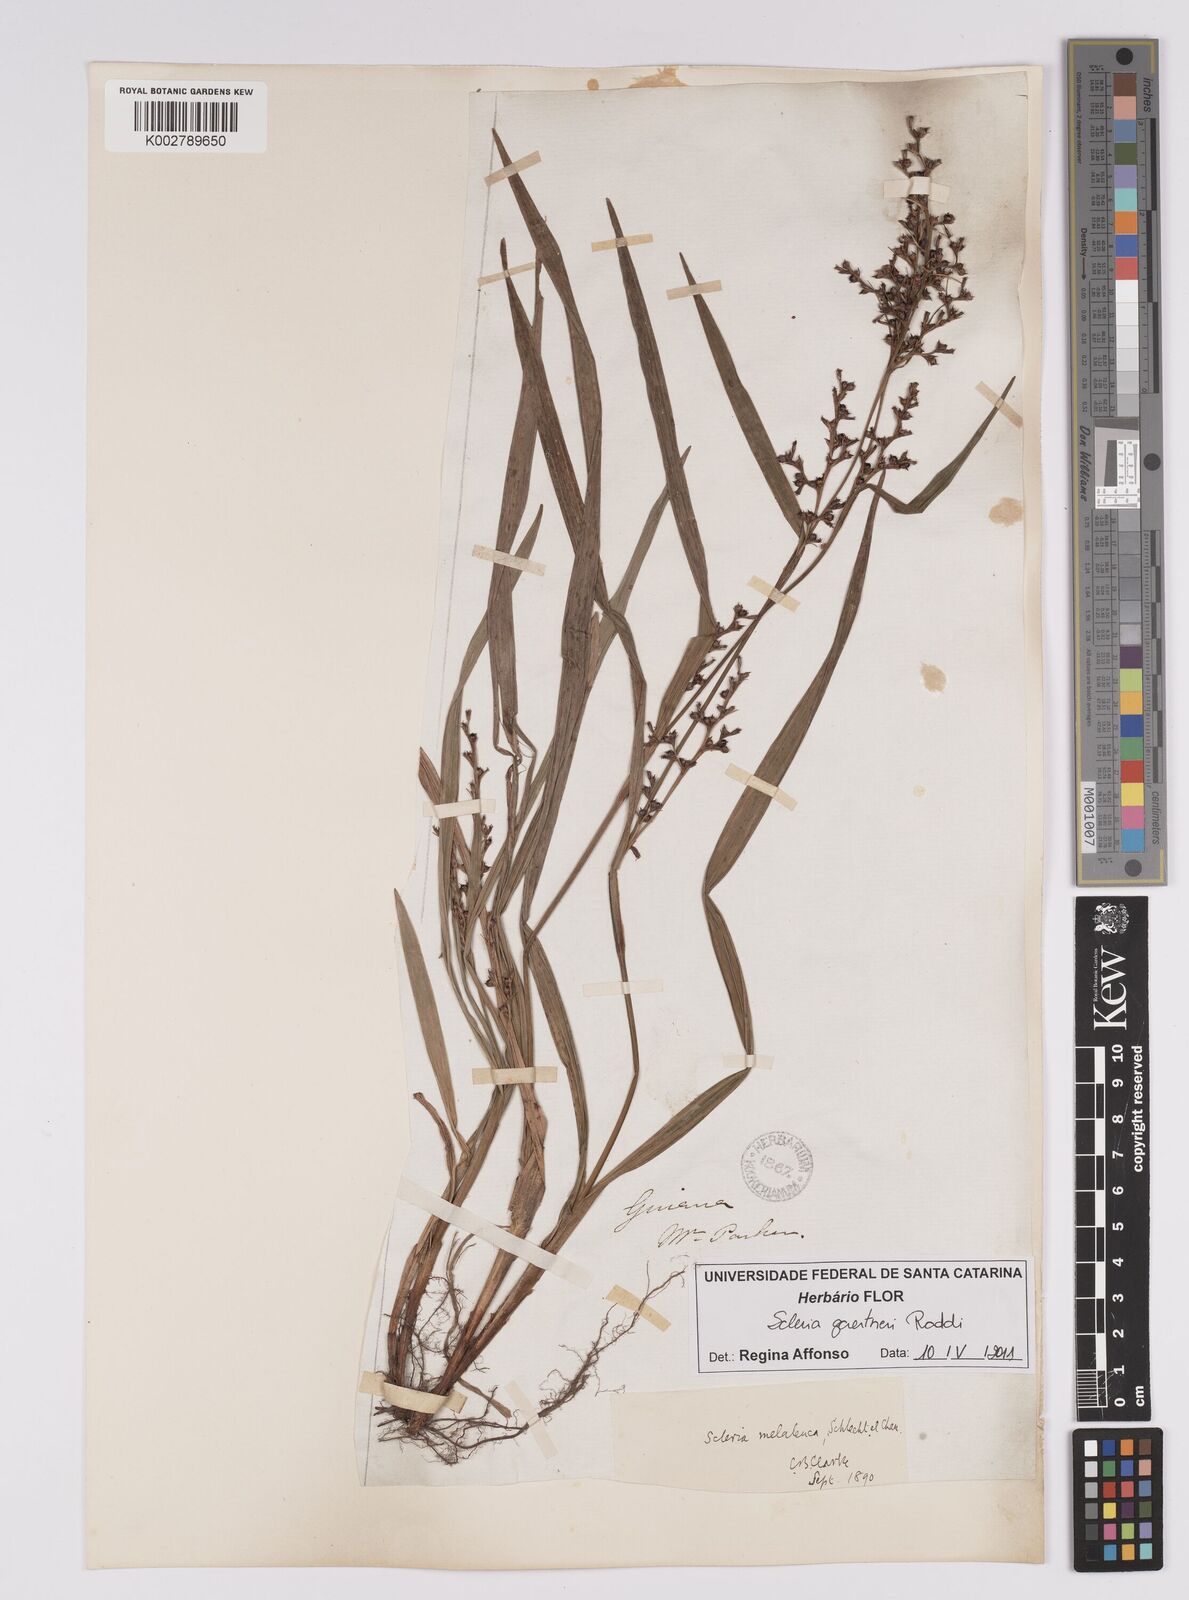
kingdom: Plantae
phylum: Tracheophyta
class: Liliopsida
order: Poales
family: Cyperaceae
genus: Scleria
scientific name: Scleria gaertneri
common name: Cortadera blanca
